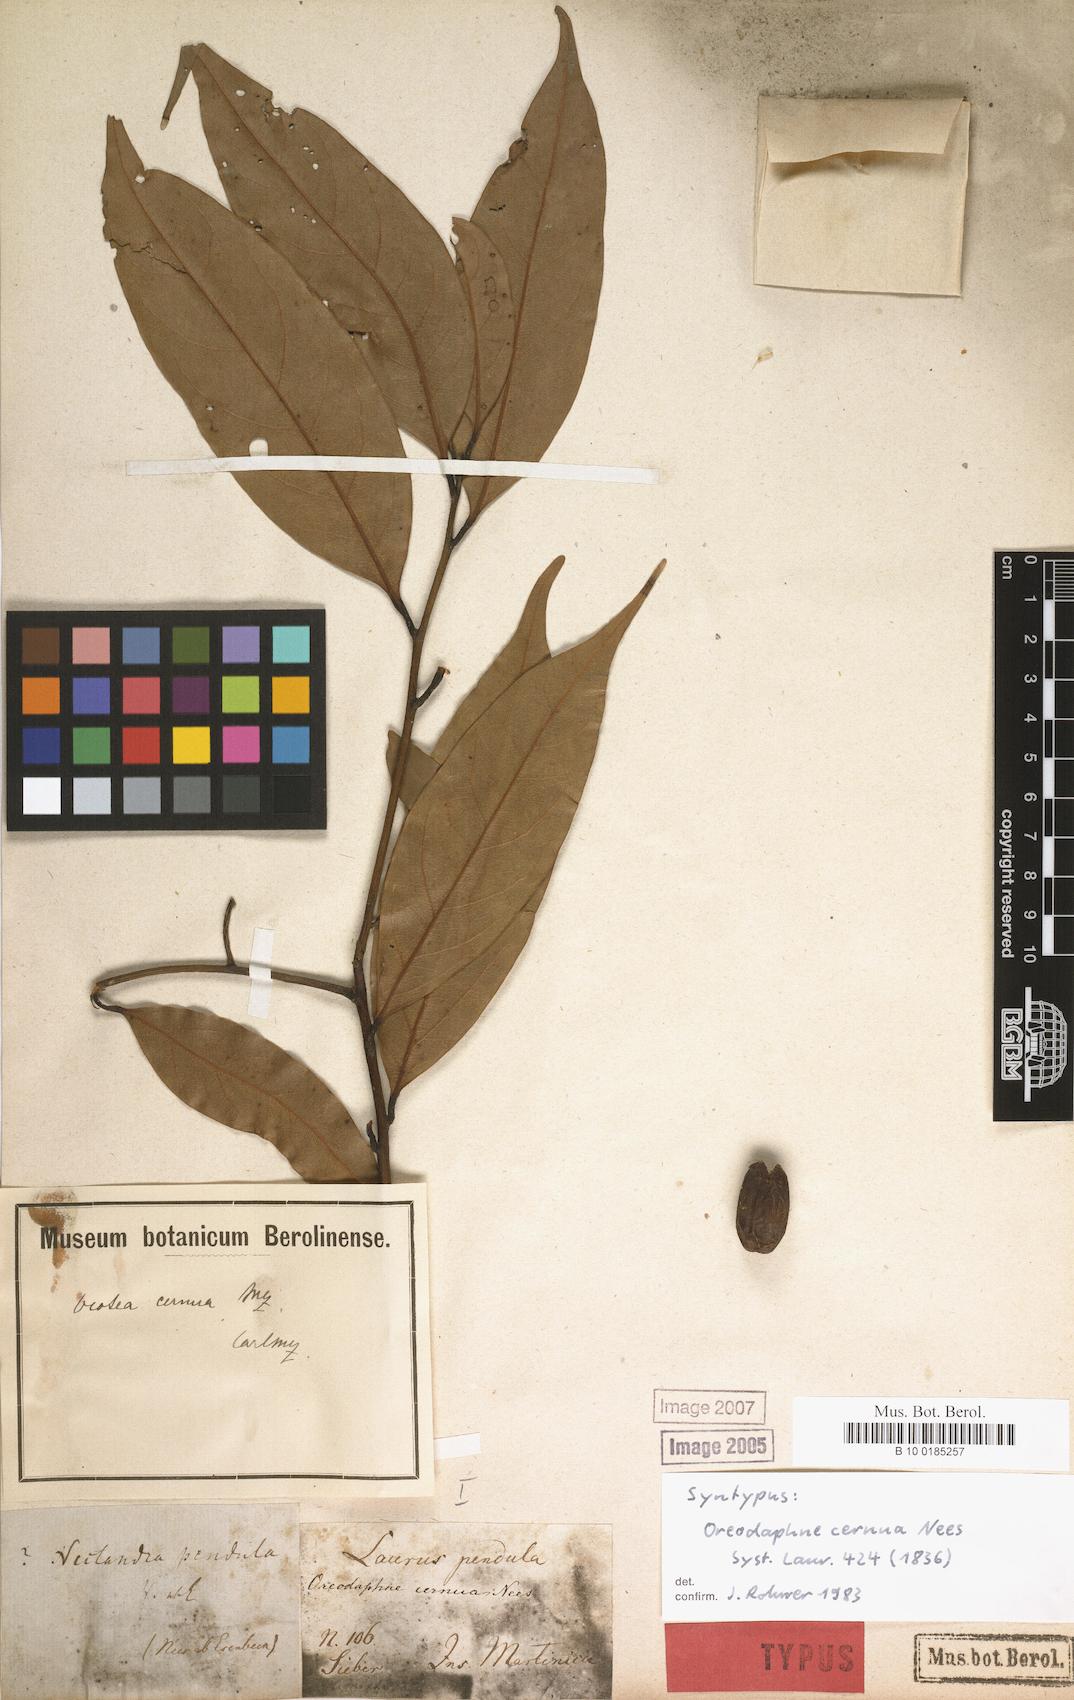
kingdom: Plantae
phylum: Tracheophyta
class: Magnoliopsida
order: Laurales
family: Lauraceae
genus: Ocotea
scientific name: Ocotea leptobotra
